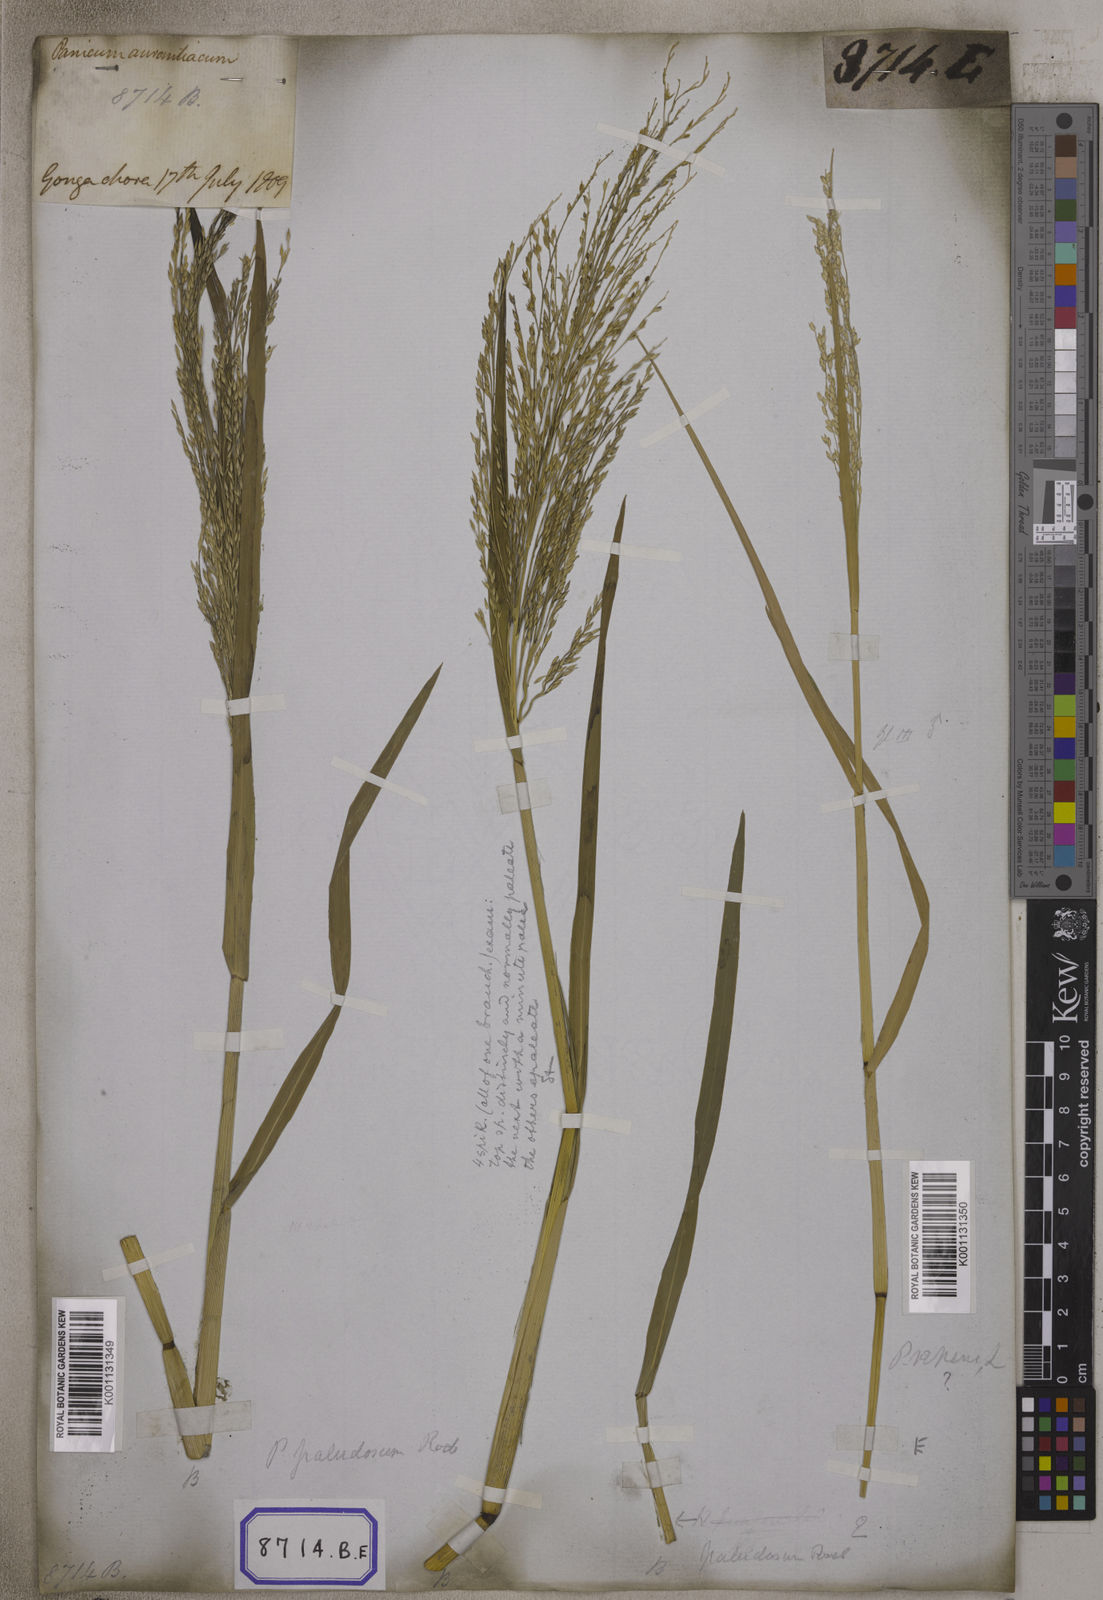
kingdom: Plantae
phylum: Tracheophyta
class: Liliopsida
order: Poales
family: Poaceae
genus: Panicum
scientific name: Panicum
